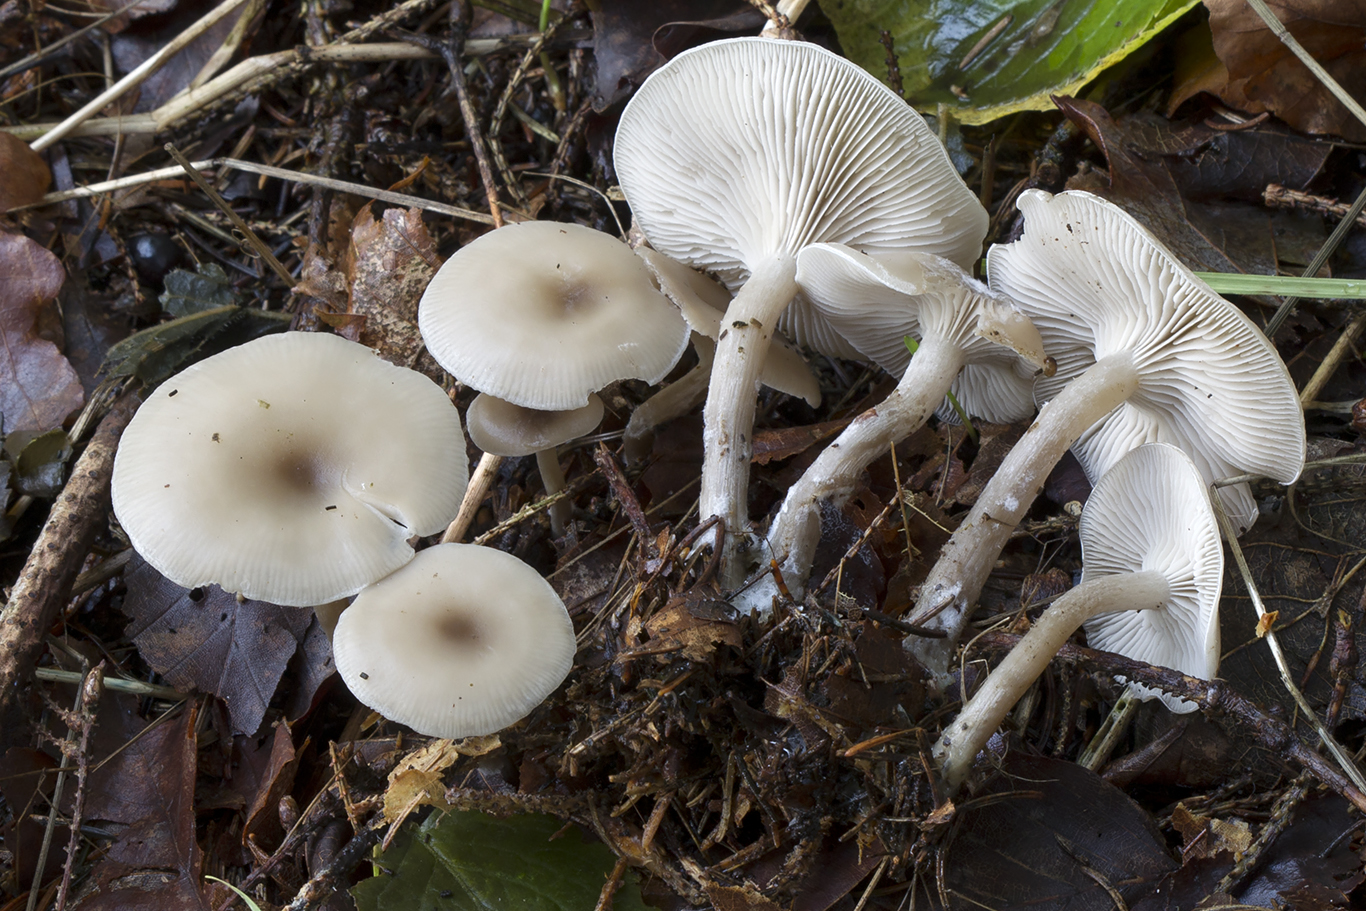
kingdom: Fungi
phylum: Basidiomycota
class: Agaricomycetes
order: Agaricales
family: Tricholomataceae
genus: Clitocybe
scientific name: Clitocybe metachroa
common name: grå tragthat
